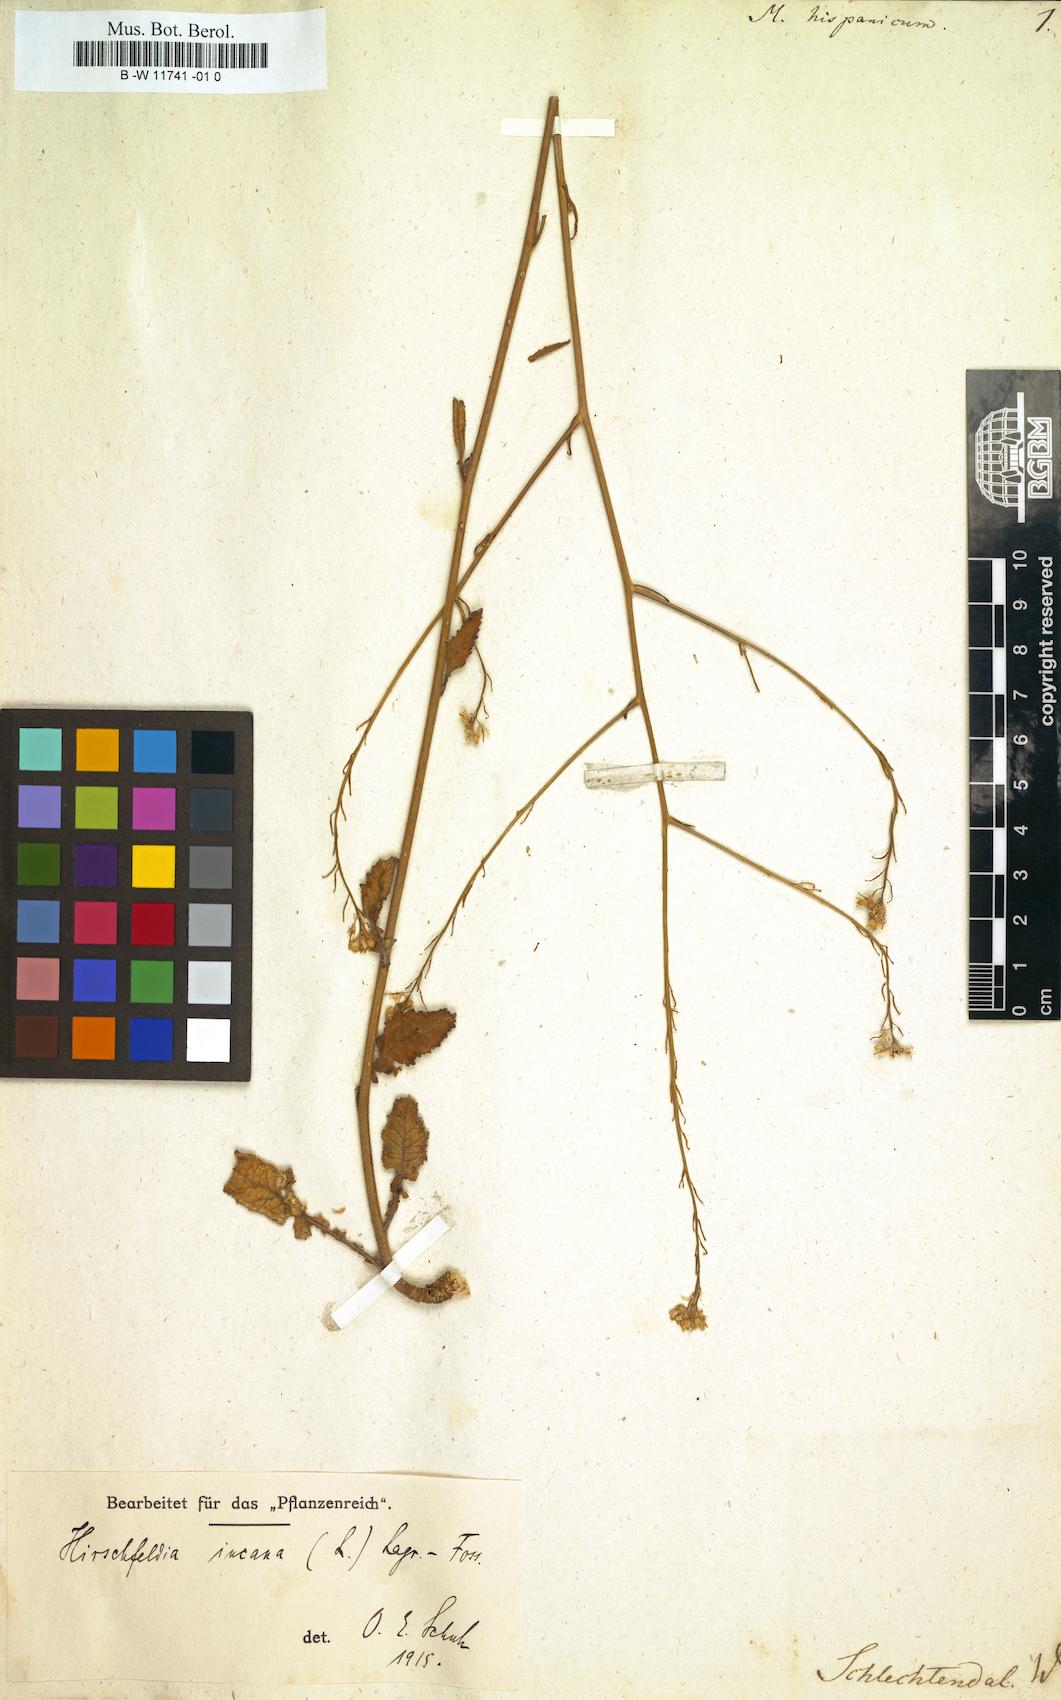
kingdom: Plantae
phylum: Tracheophyta
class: Magnoliopsida
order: Brassicales
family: Brassicaceae
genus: Rapistrum
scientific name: Rapistrum rugosum
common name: Annual bastardcabbage
